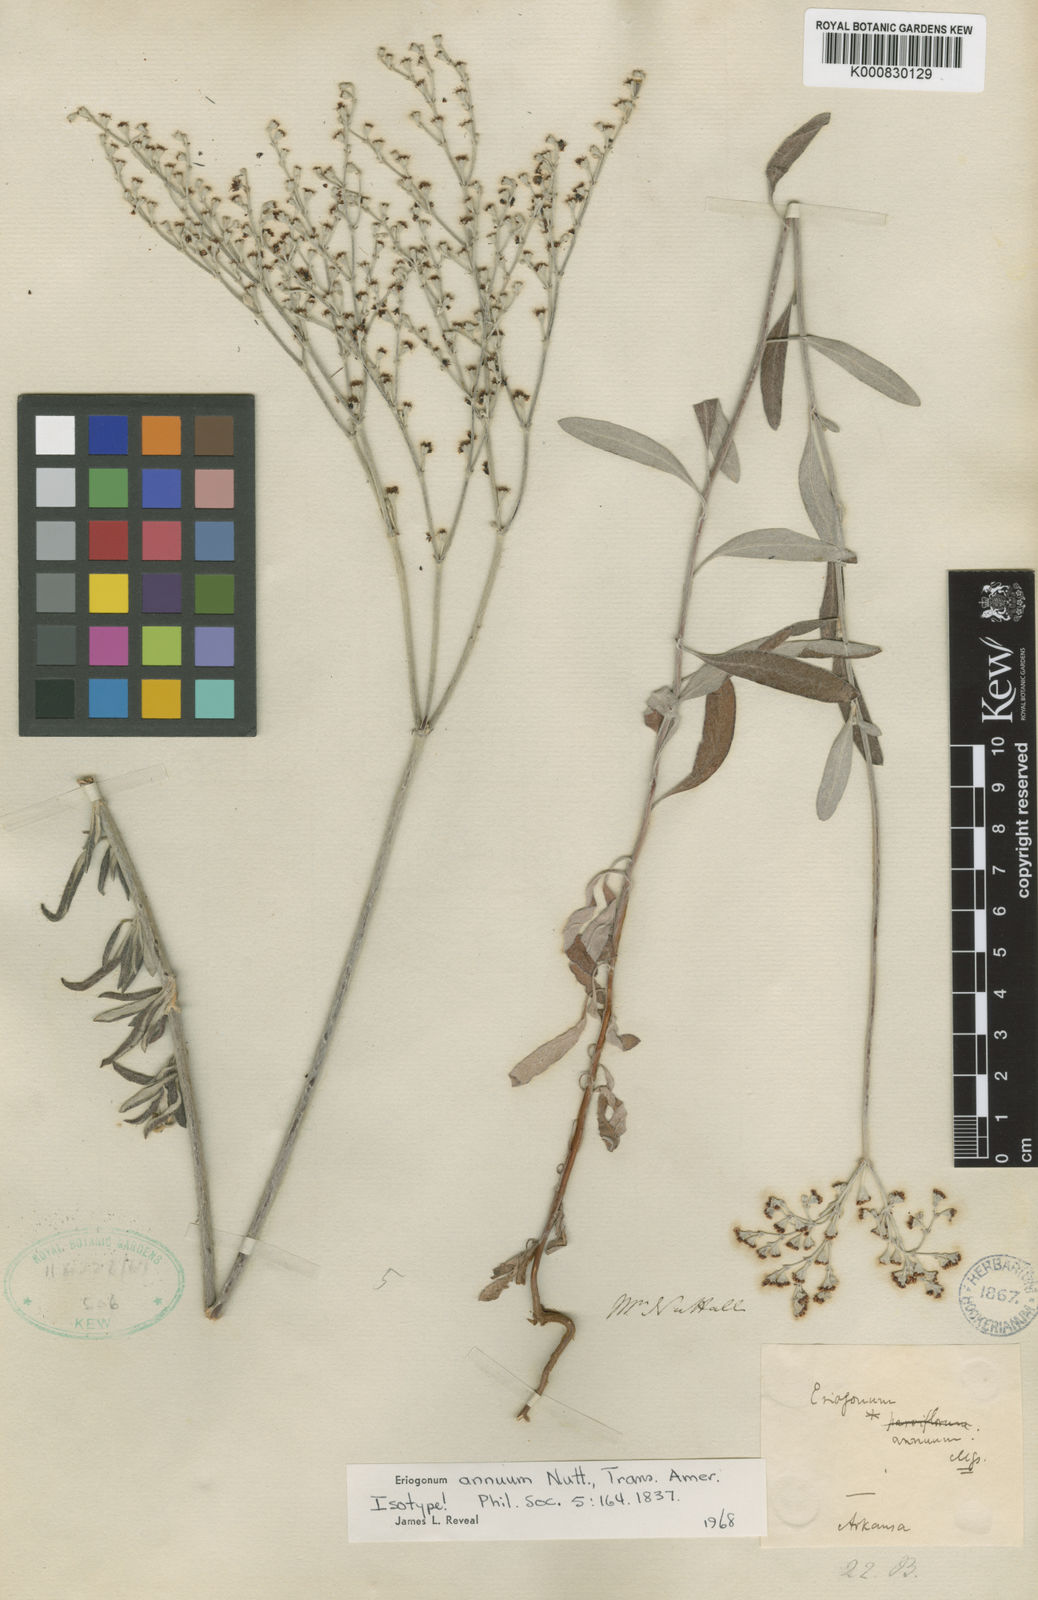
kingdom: Plantae
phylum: Tracheophyta
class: Magnoliopsida
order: Caryophyllales
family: Polygonaceae
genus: Eriogonum
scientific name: Eriogonum annuum
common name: Annual wild buckwheat
